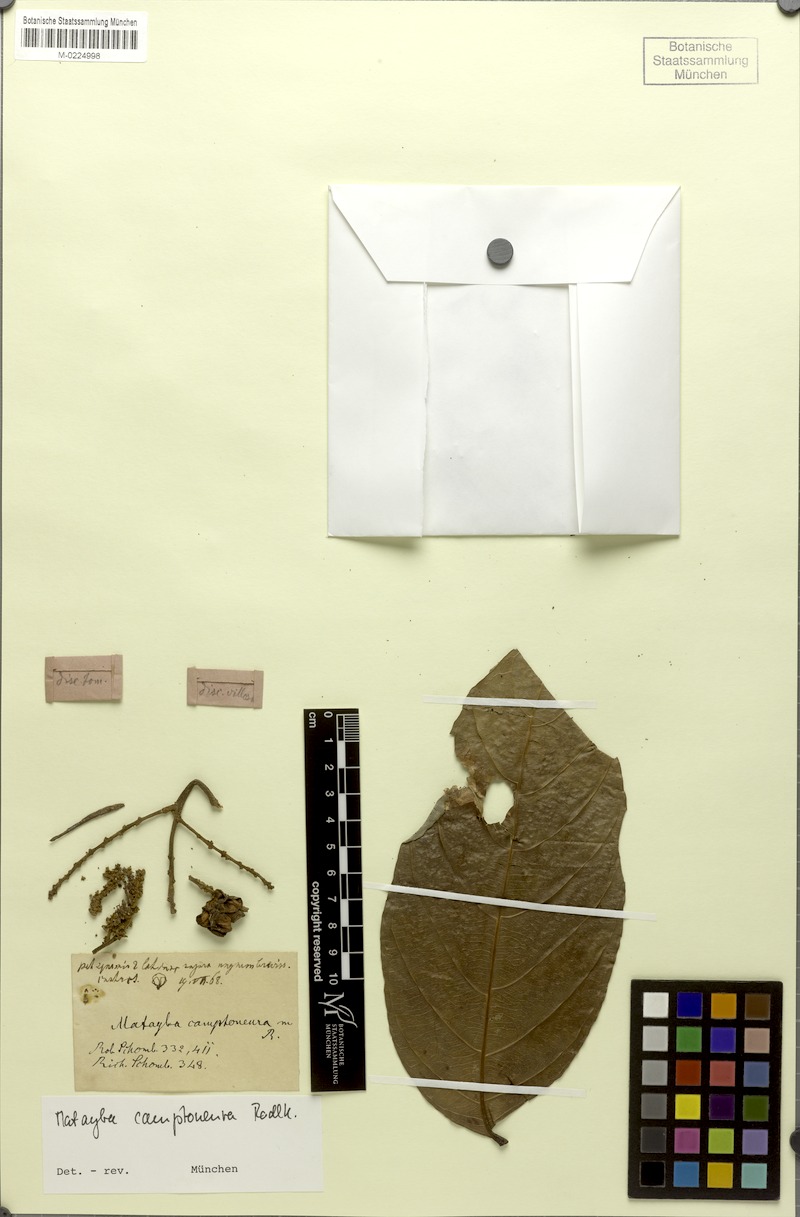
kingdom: Plantae
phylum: Tracheophyta
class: Magnoliopsida
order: Sapindales
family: Sapindaceae
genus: Matayba
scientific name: Matayba camptoneura
